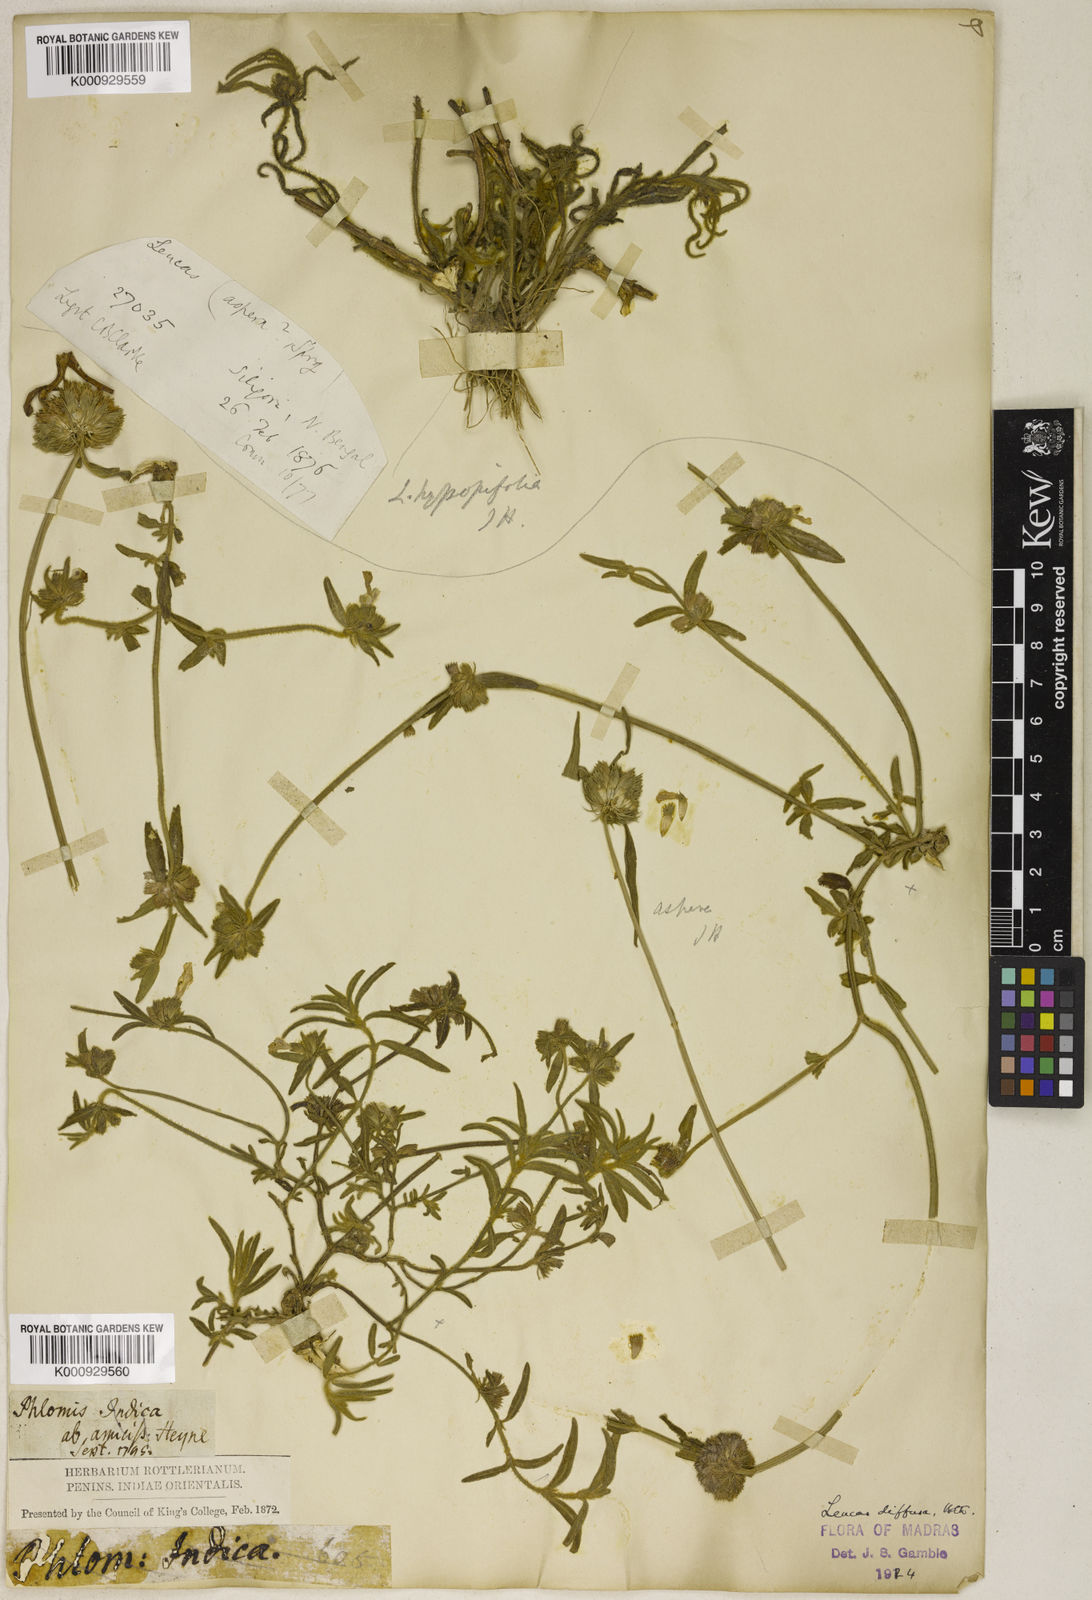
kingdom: Plantae
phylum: Tracheophyta
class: Magnoliopsida
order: Lamiales
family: Lamiaceae
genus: Leucas
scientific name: Leucas diffusa
